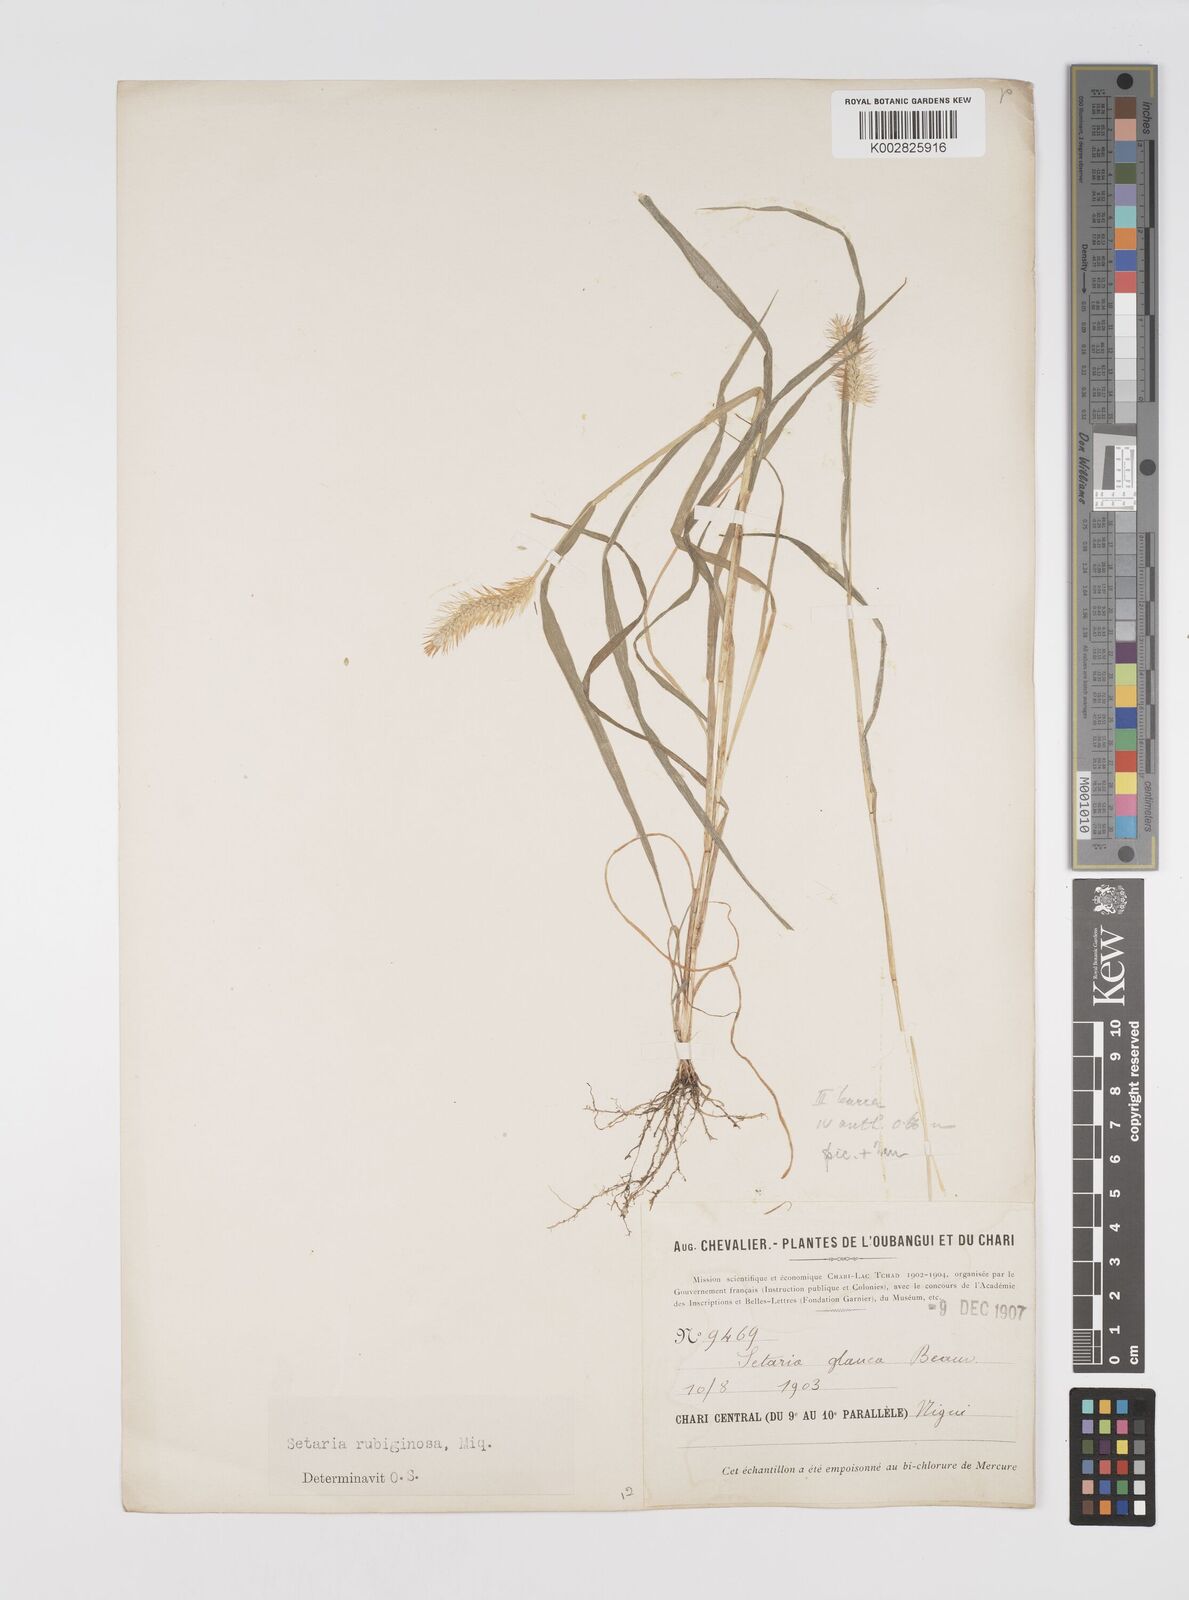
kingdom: Plantae
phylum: Tracheophyta
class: Liliopsida
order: Poales
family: Poaceae
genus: Setaria
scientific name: Setaria pumila
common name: Yellow bristle-grass
